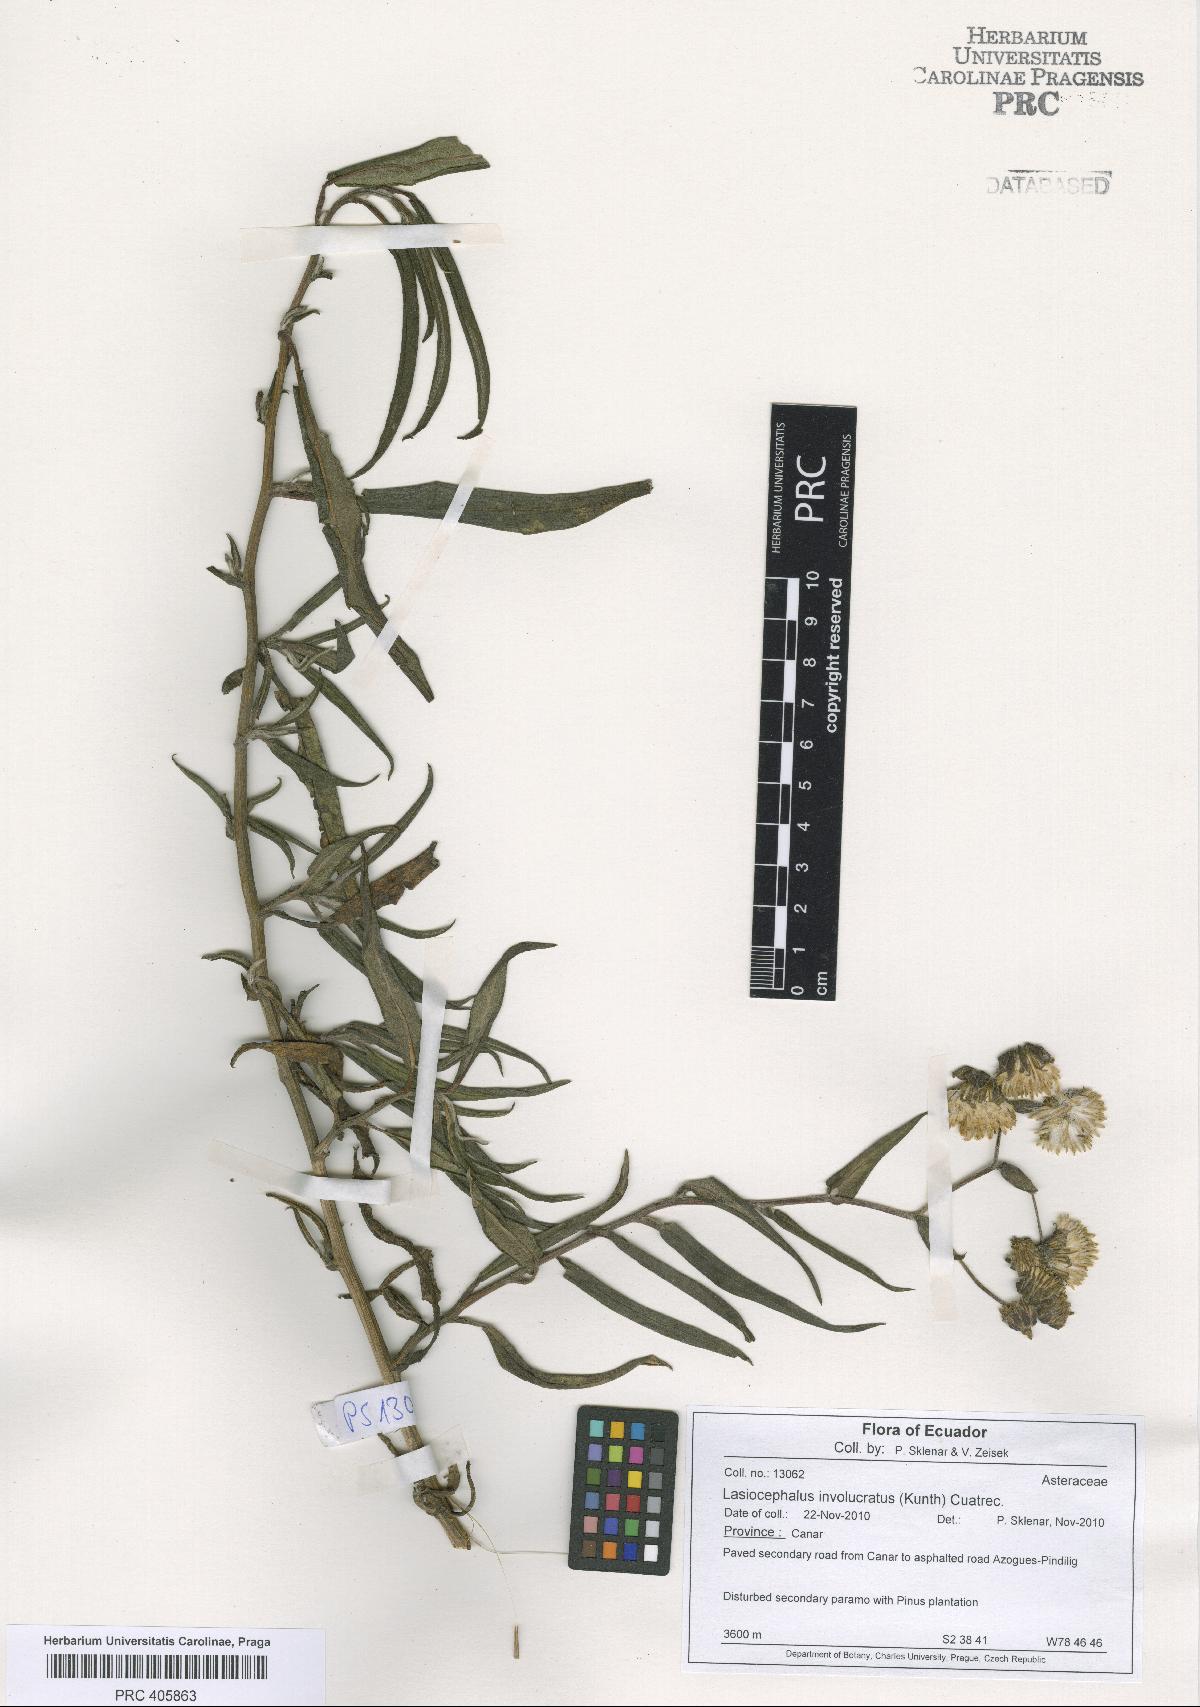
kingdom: Plantae
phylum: Tracheophyta
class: Magnoliopsida
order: Asterales
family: Asteraceae
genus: Aetheolaena
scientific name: Aetheolaena involucrata
